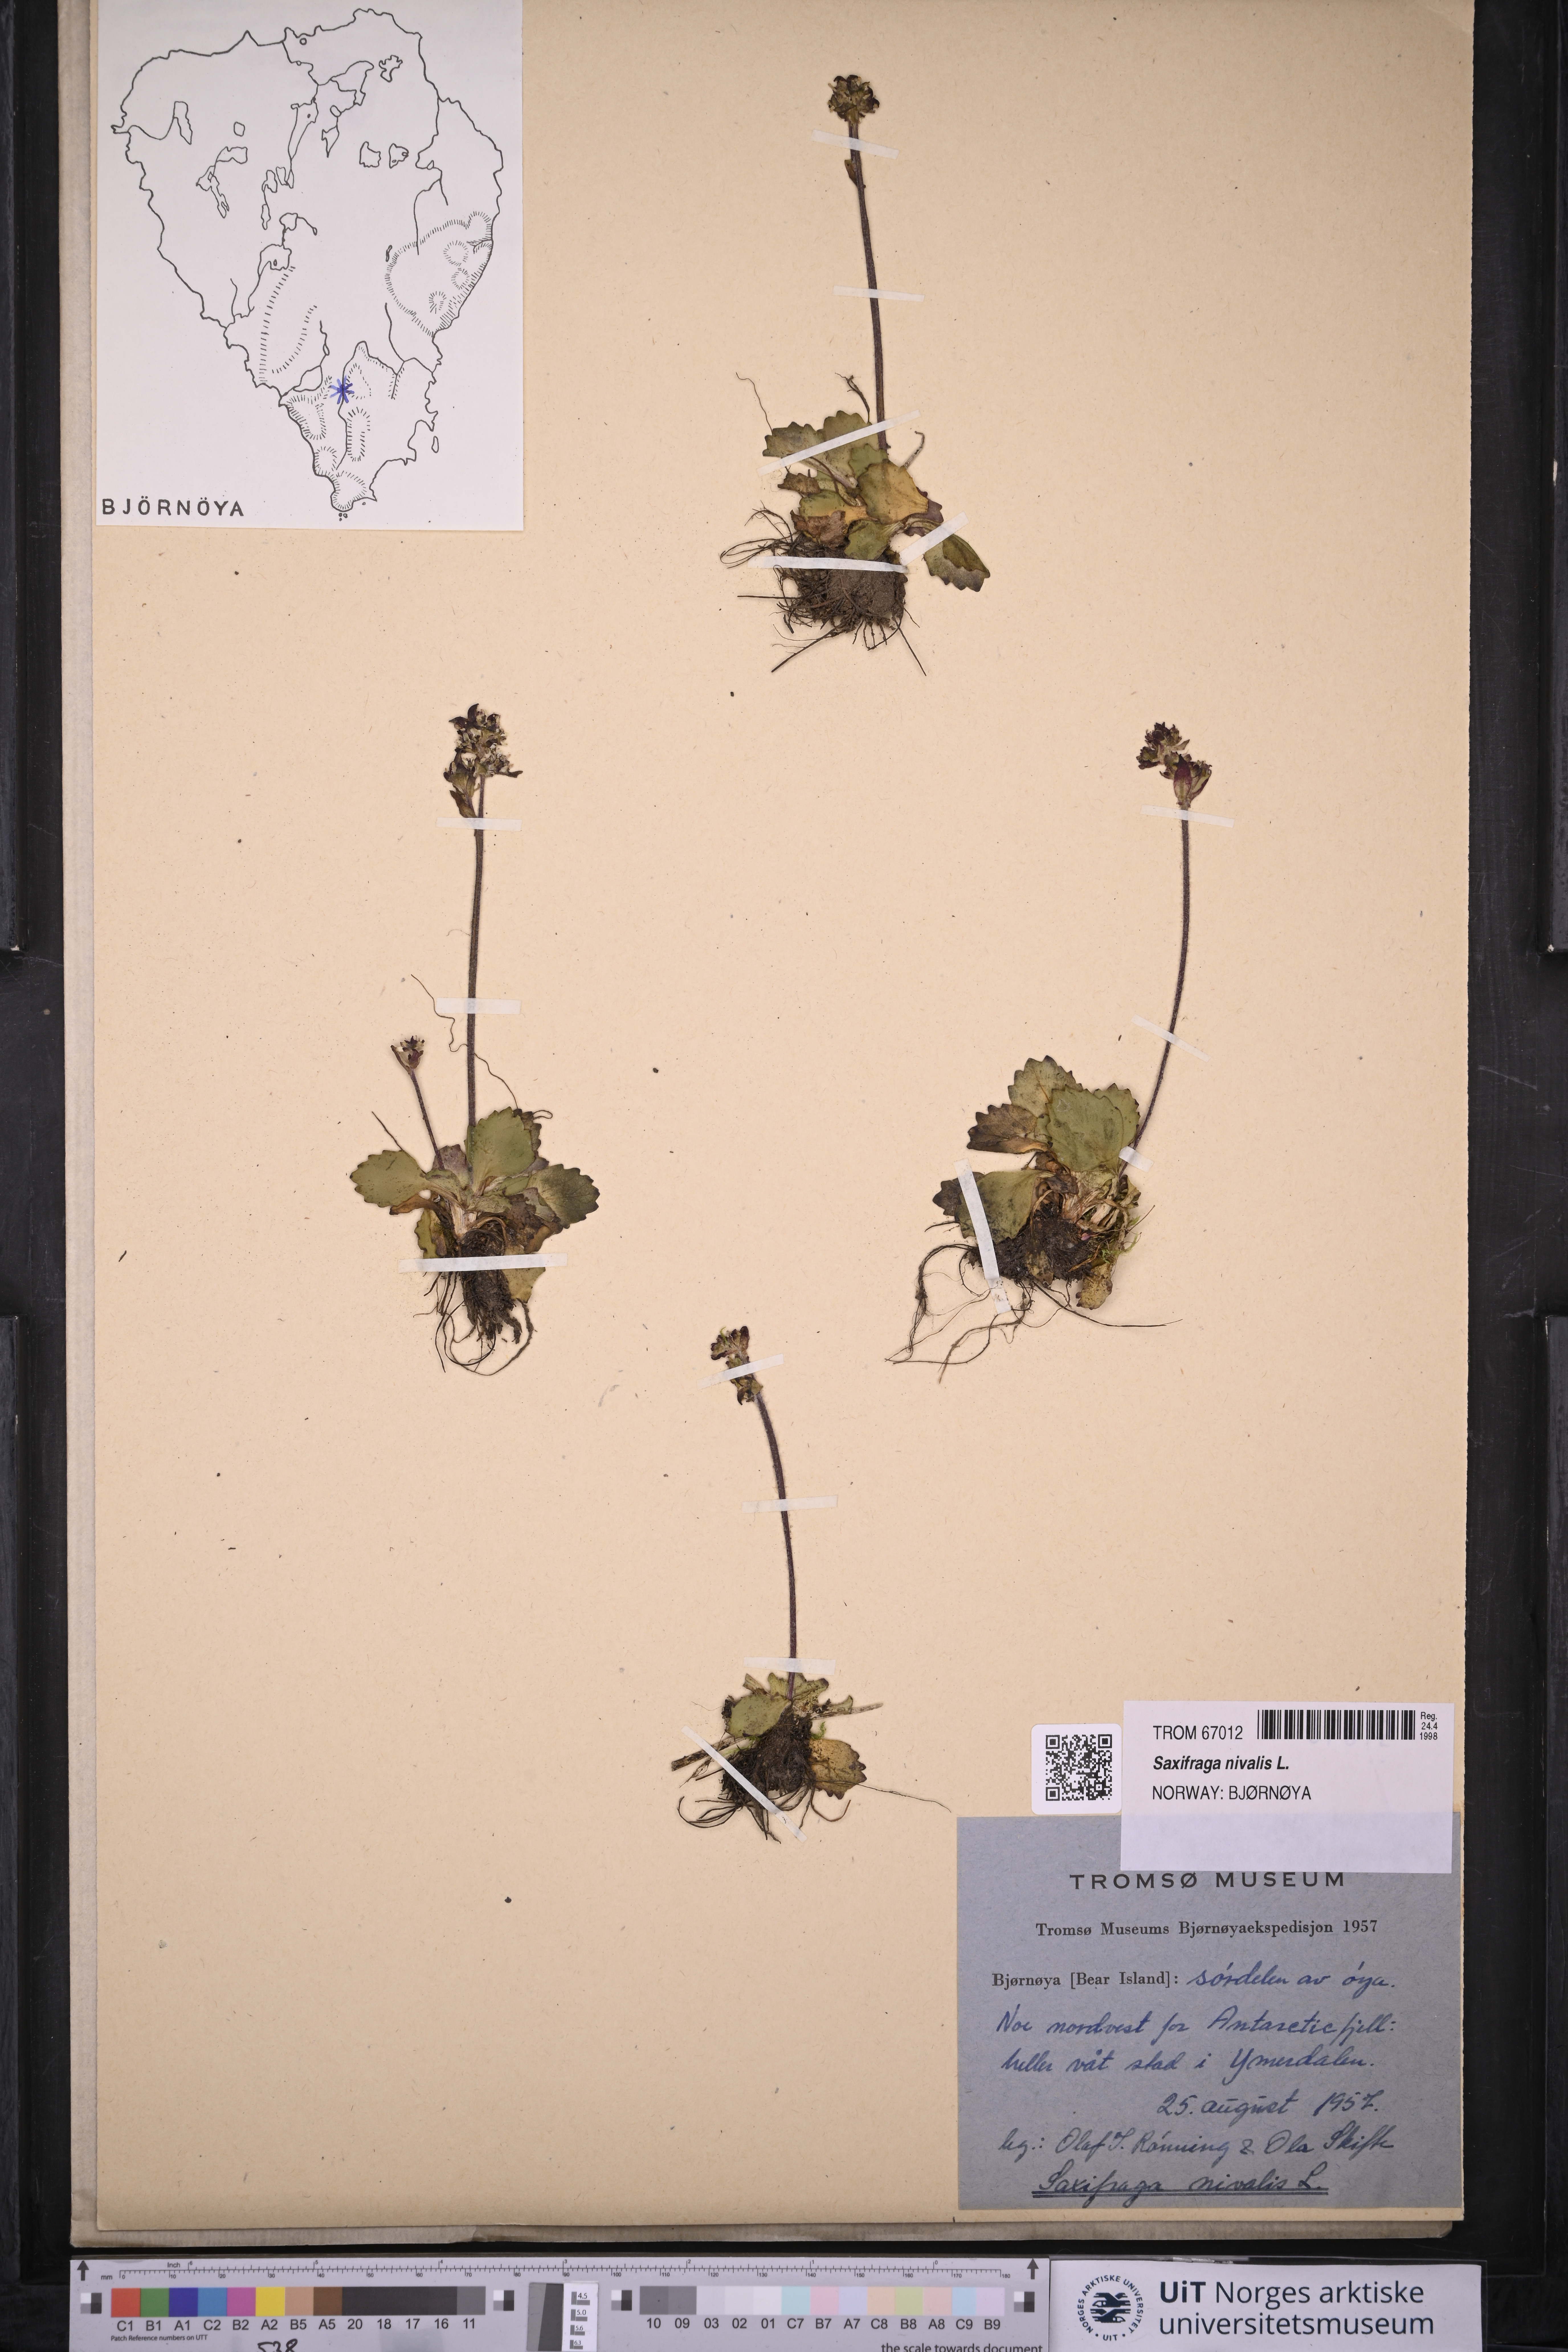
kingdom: Plantae
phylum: Tracheophyta
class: Magnoliopsida
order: Saxifragales
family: Saxifragaceae
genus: Micranthes
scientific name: Micranthes nivalis
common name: Alpine saxifrage
